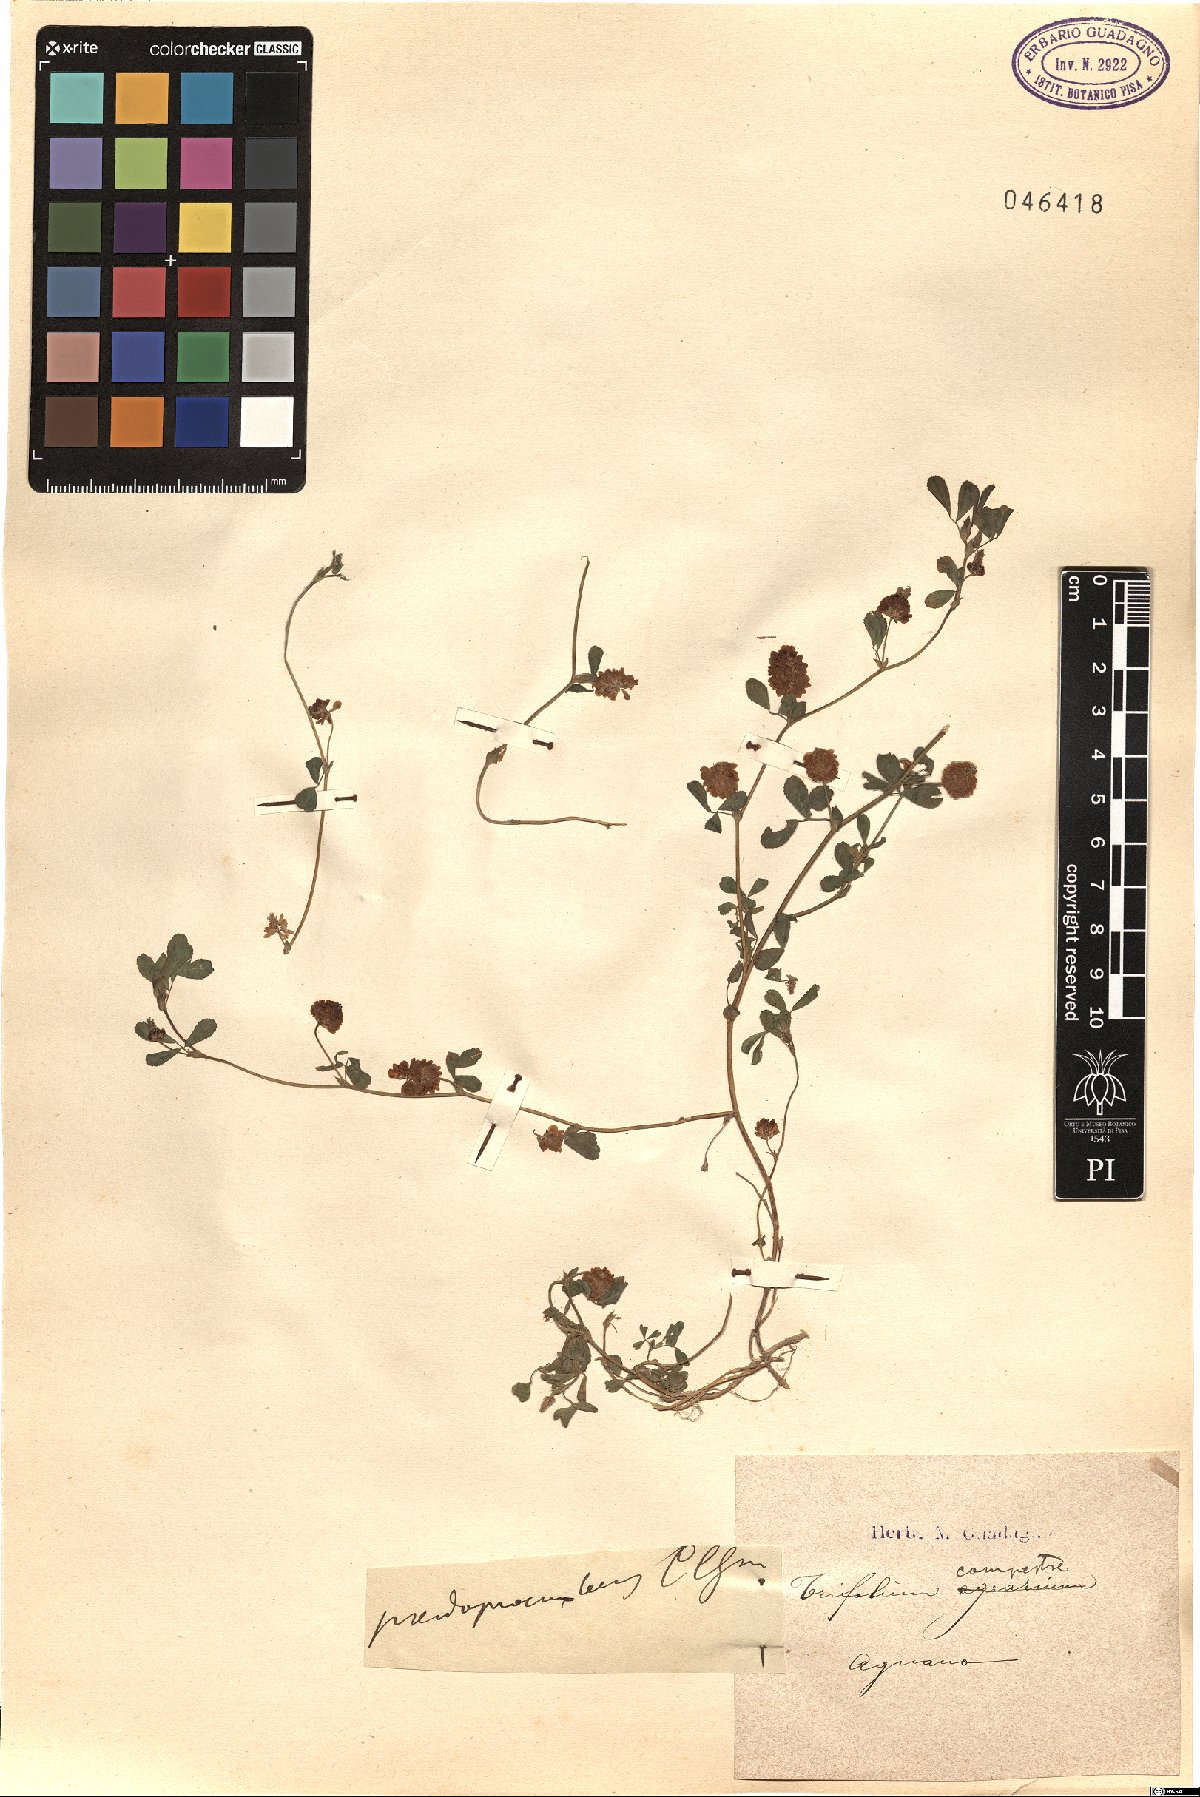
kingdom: Plantae
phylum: Tracheophyta
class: Magnoliopsida
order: Fabales
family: Fabaceae
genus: Trifolium
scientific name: Trifolium campestre
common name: Field clover
